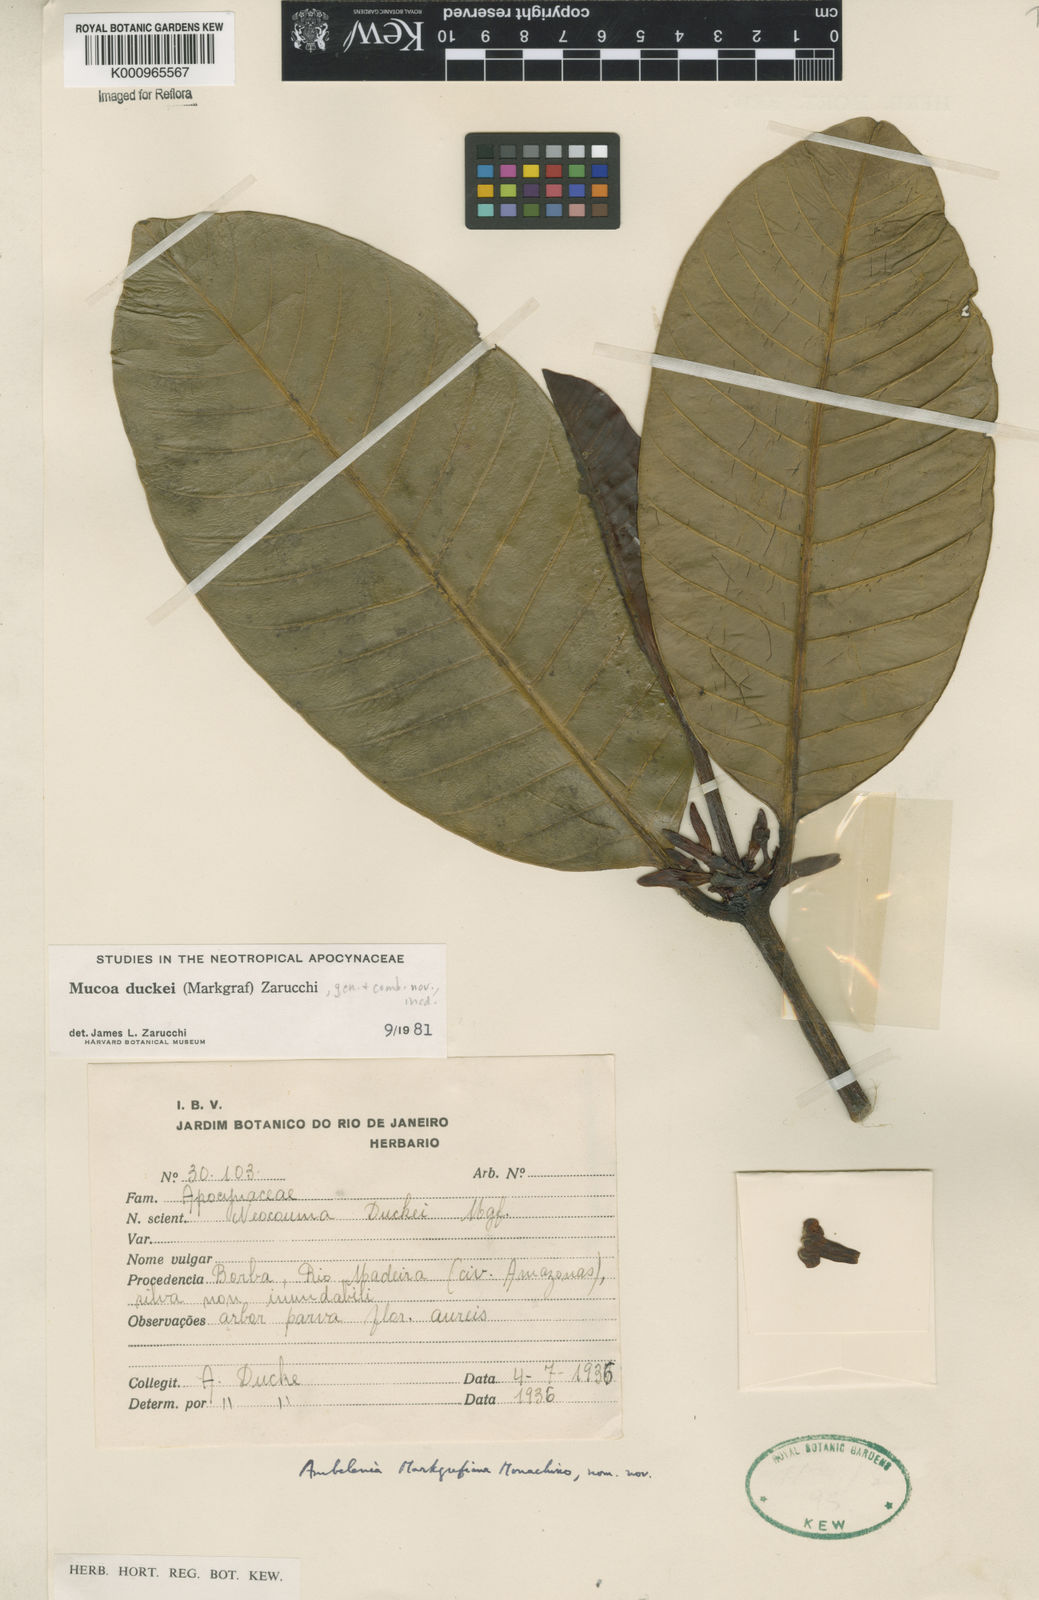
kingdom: Plantae
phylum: Tracheophyta
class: Magnoliopsida
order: Gentianales
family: Apocynaceae
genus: Mucoa
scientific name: Mucoa duckei
